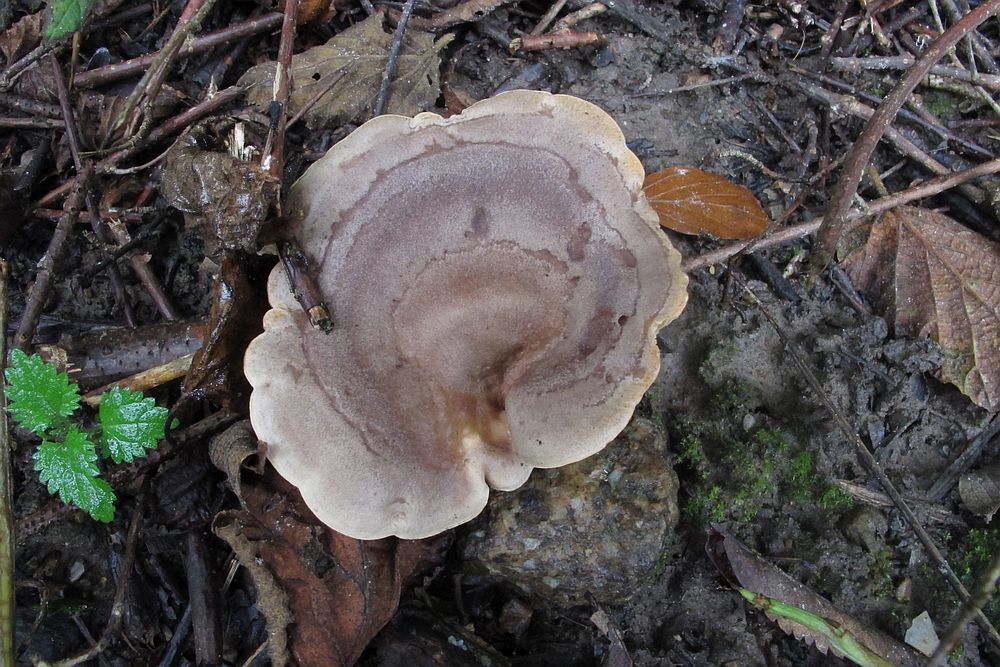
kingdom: Fungi
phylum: Basidiomycota
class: Agaricomycetes
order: Russulales
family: Russulaceae
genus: Lactarius
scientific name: Lactarius pyrogalus
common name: hassel-mælkehat
